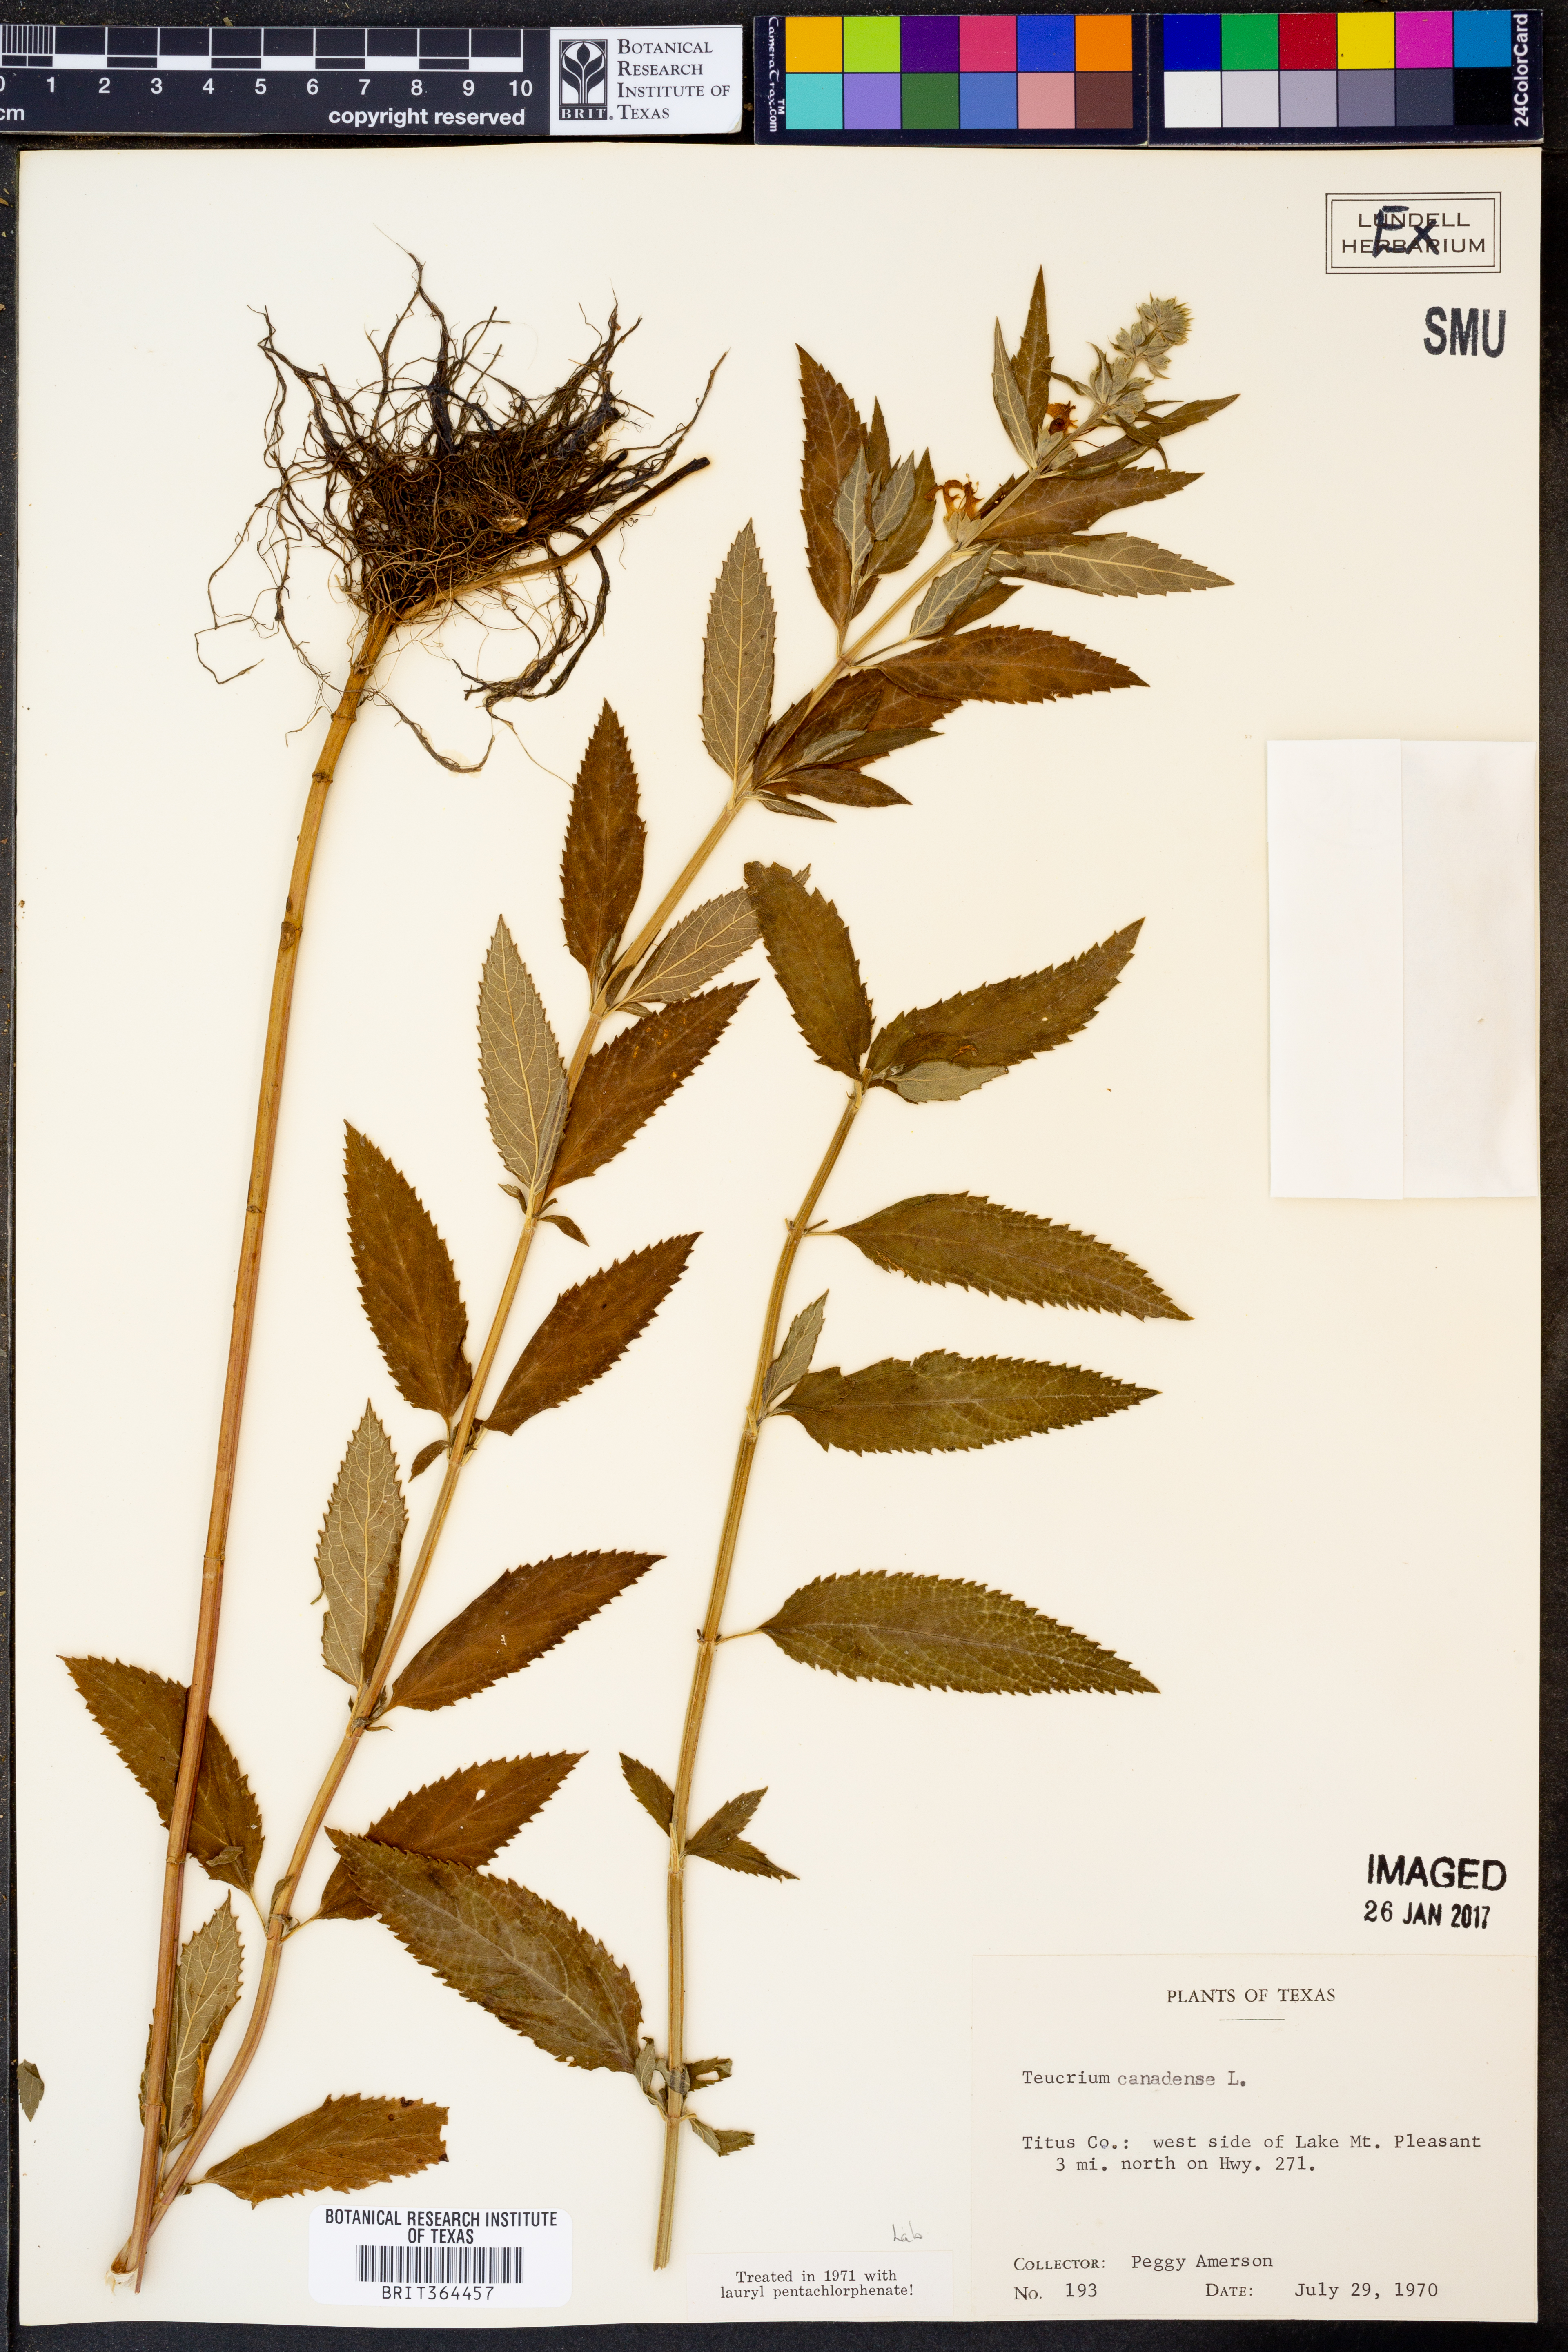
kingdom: Plantae
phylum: Tracheophyta
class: Magnoliopsida
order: Lamiales
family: Lamiaceae
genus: Teucrium
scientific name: Teucrium canadense
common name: American germander
